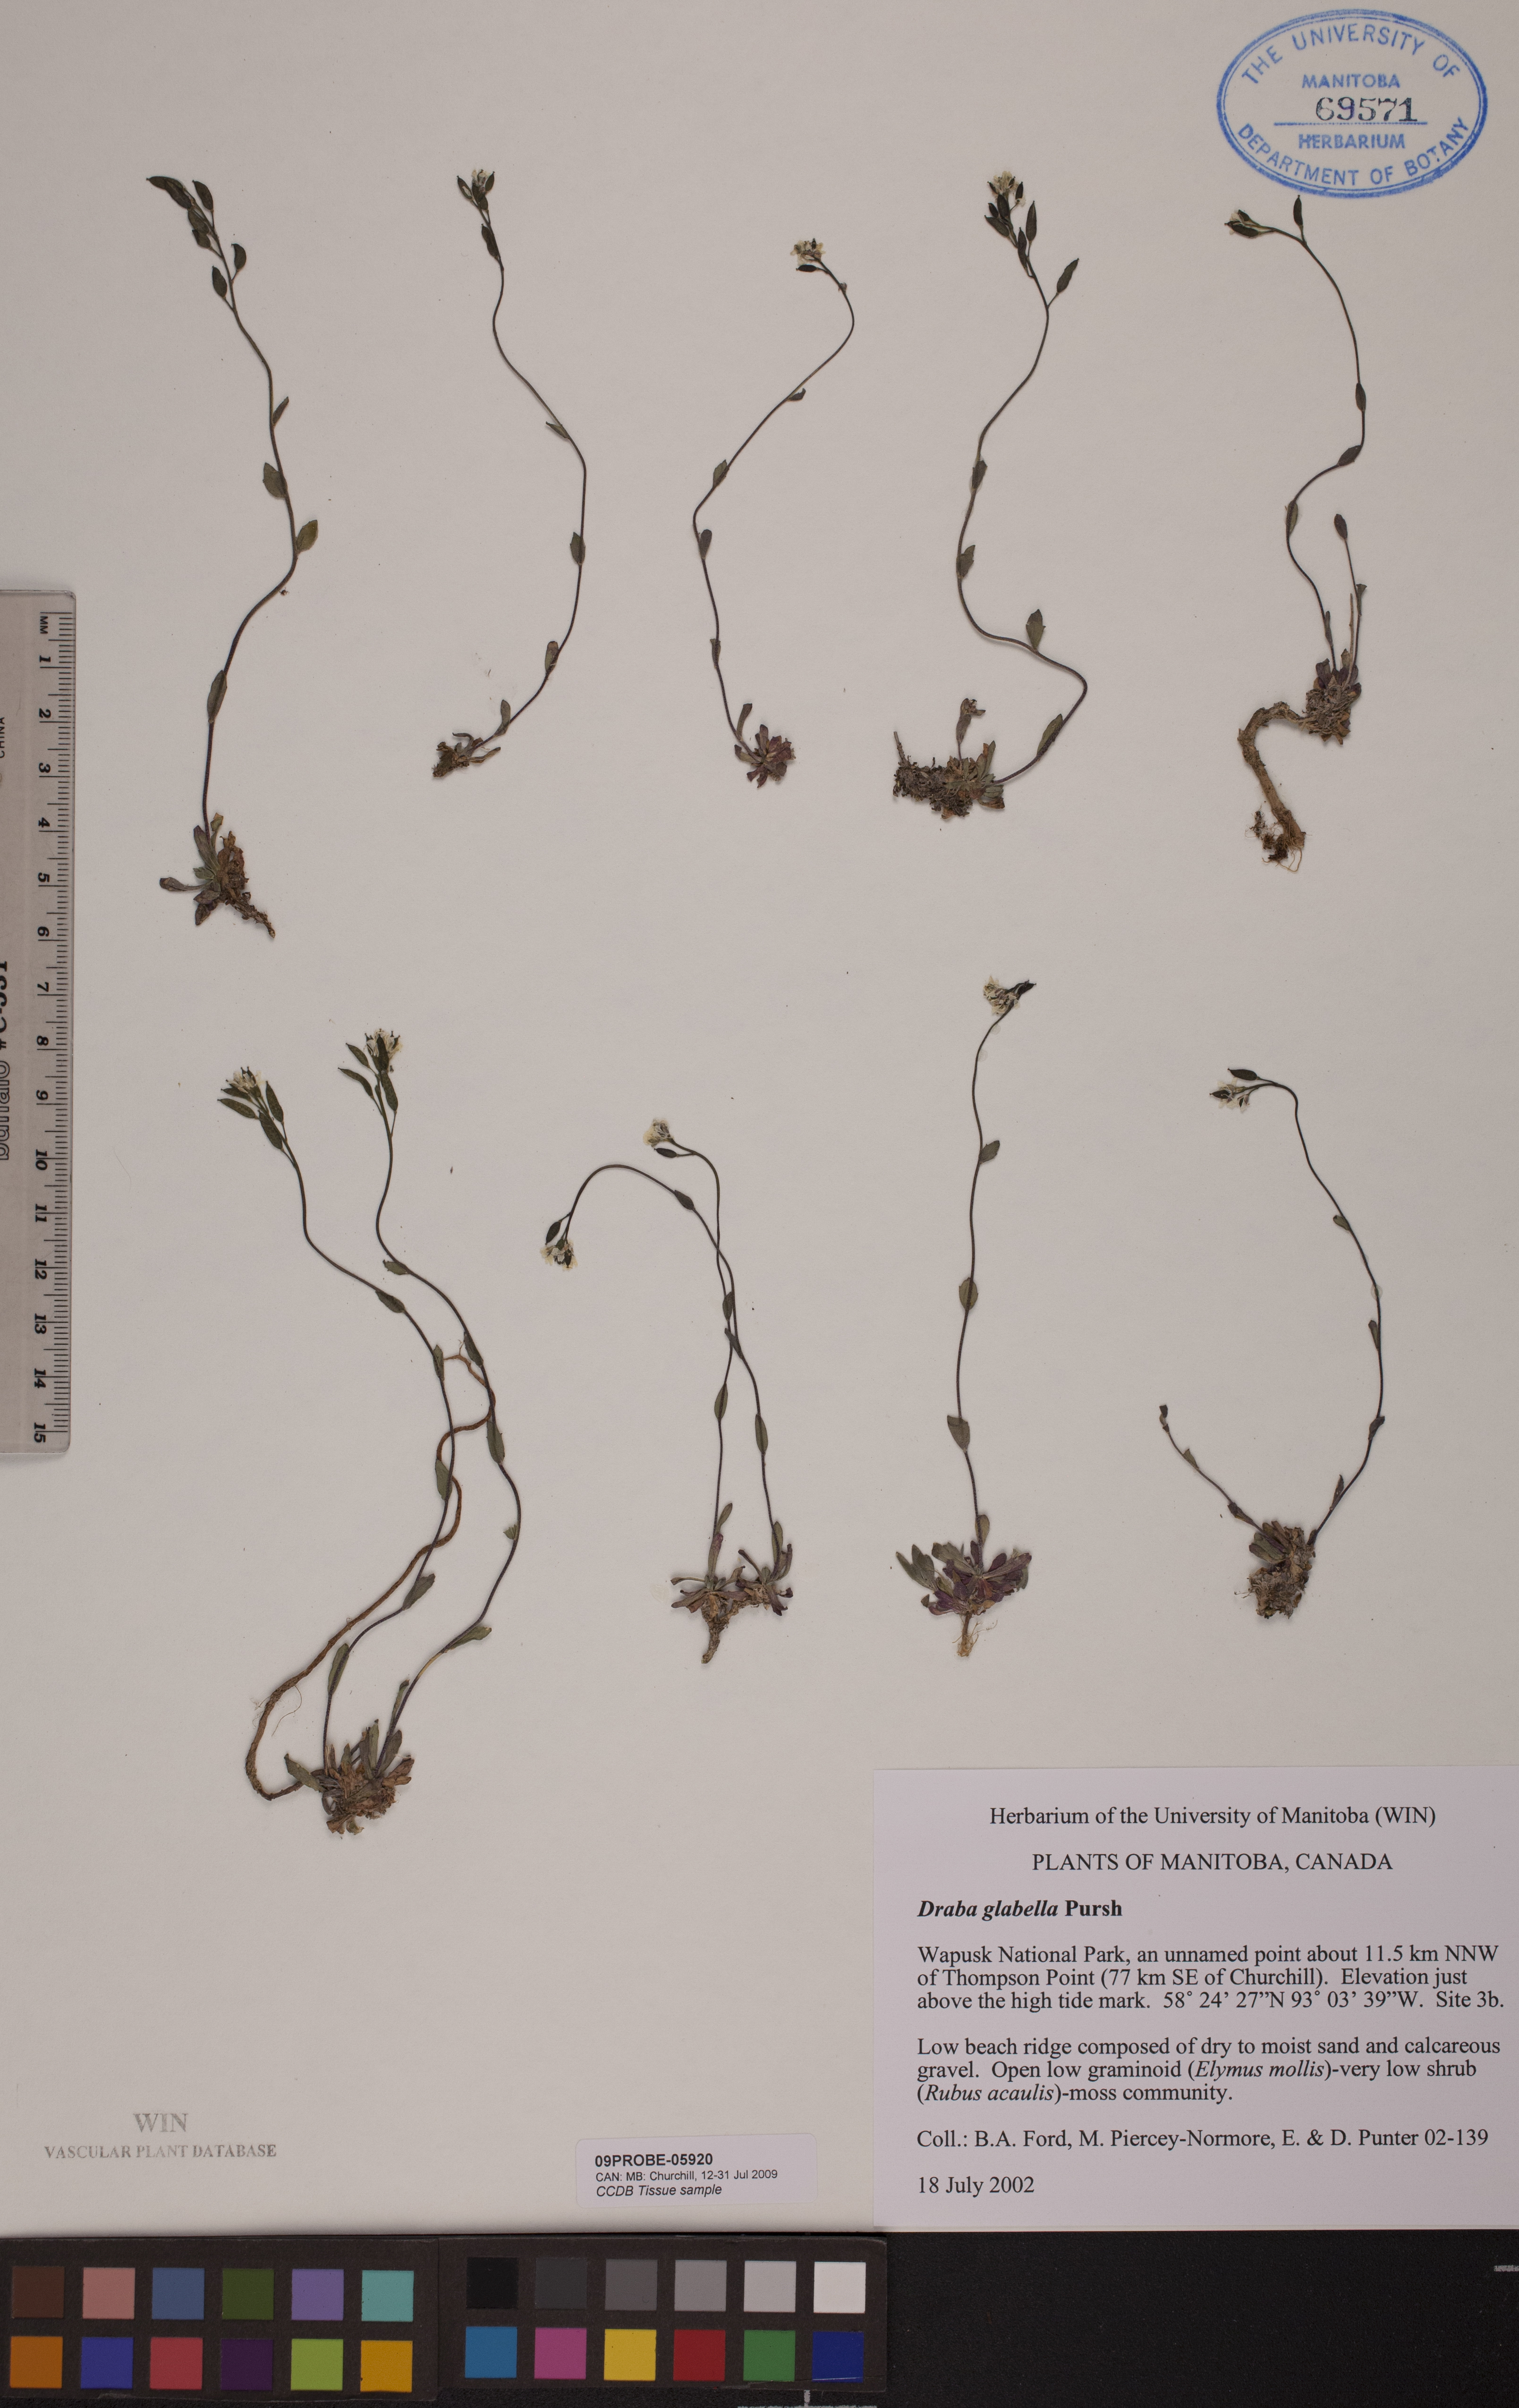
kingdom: Plantae
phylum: Tracheophyta
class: Magnoliopsida
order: Brassicales
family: Brassicaceae
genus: Draba
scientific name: Draba glabella
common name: Glaucous draba
